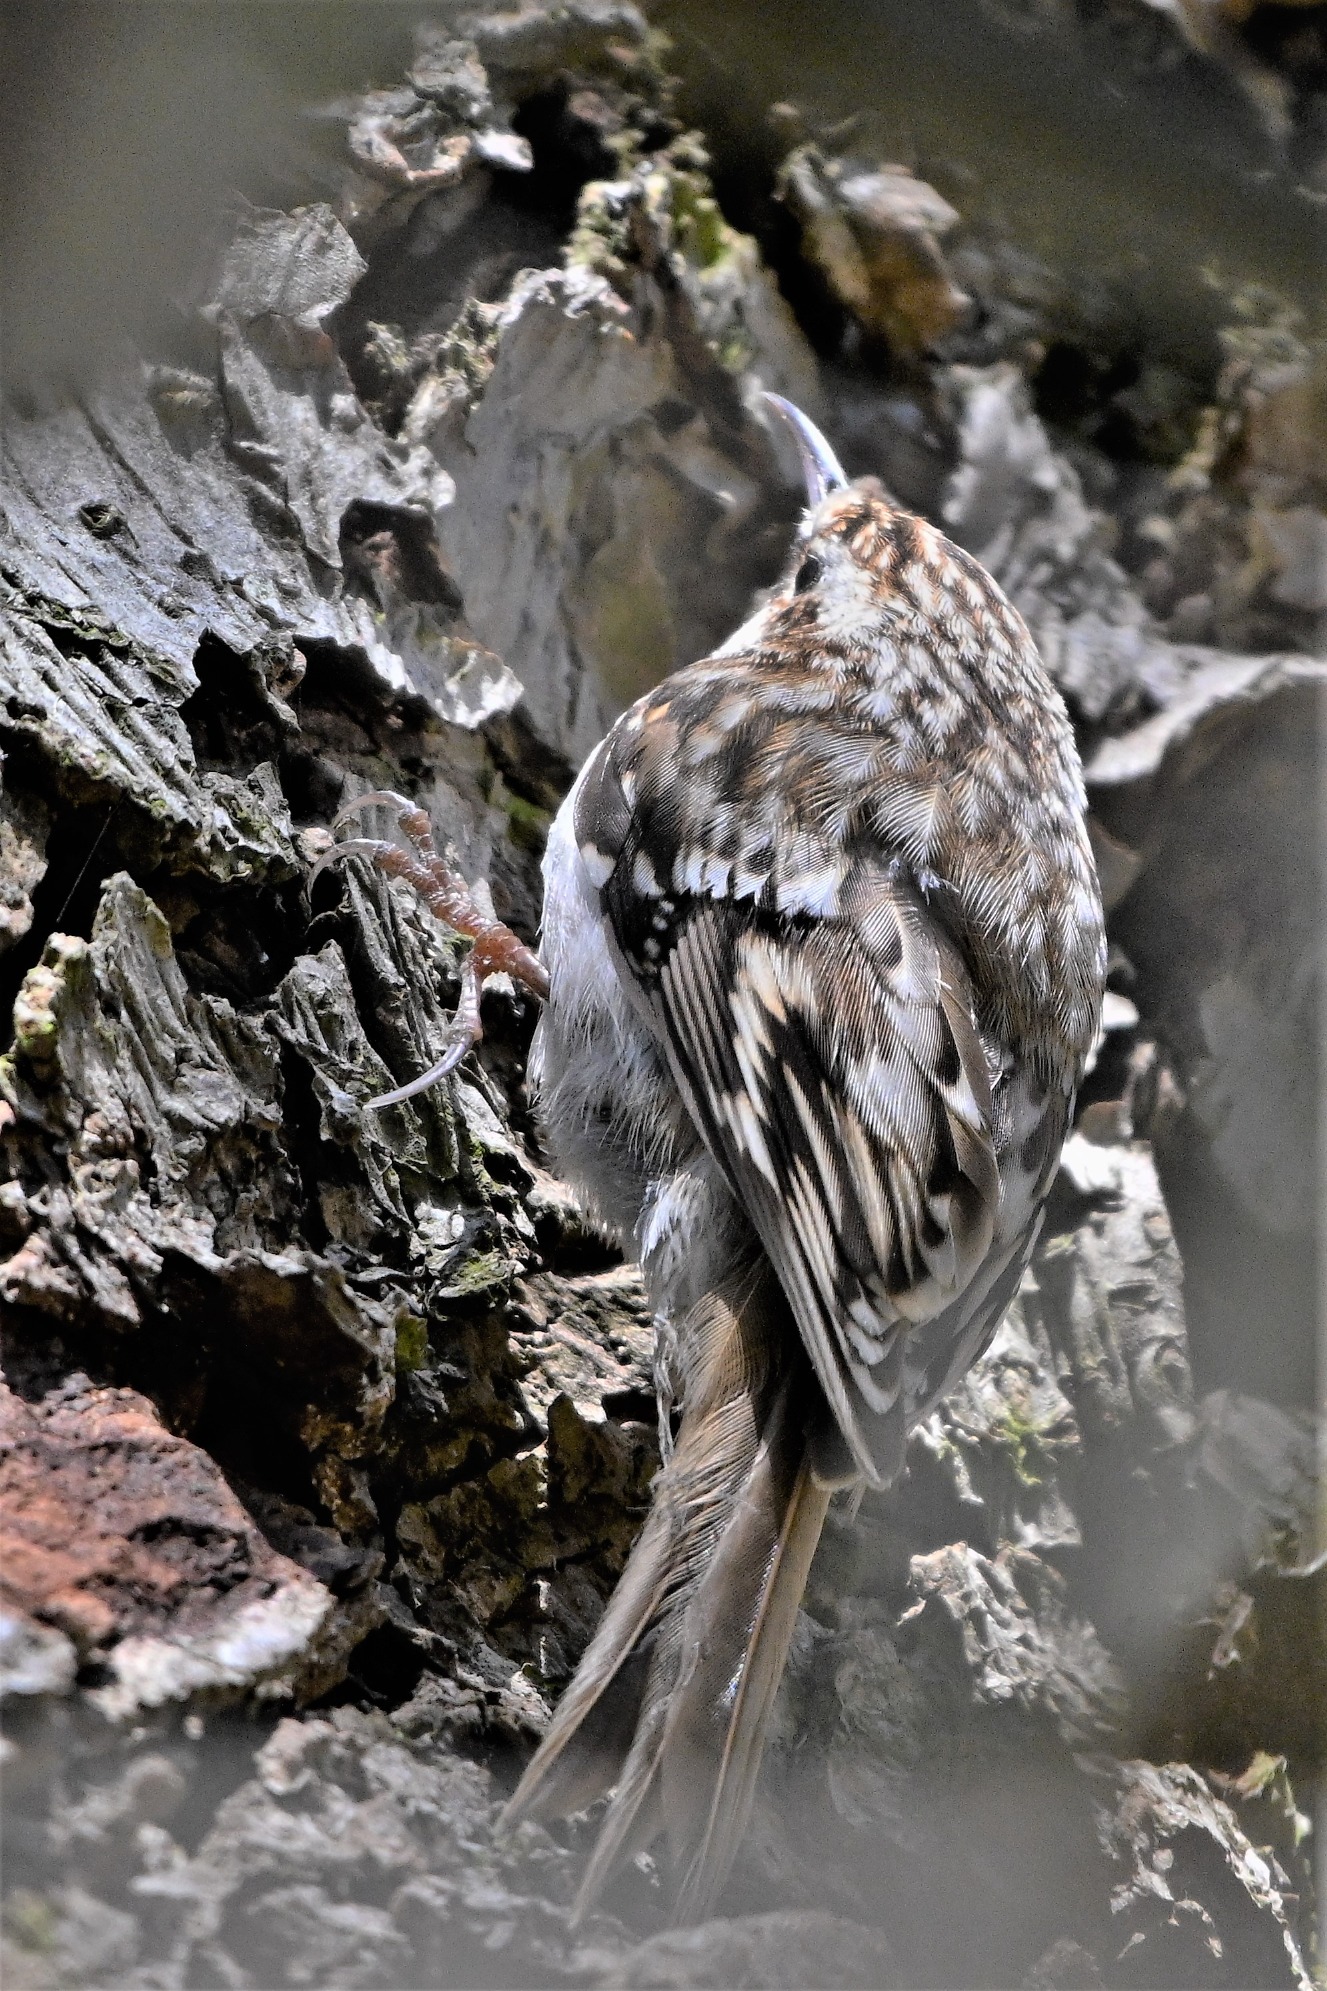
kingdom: Animalia
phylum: Chordata
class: Aves
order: Passeriformes
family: Certhiidae
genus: Certhia
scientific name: Certhia familiaris
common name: Træløber
